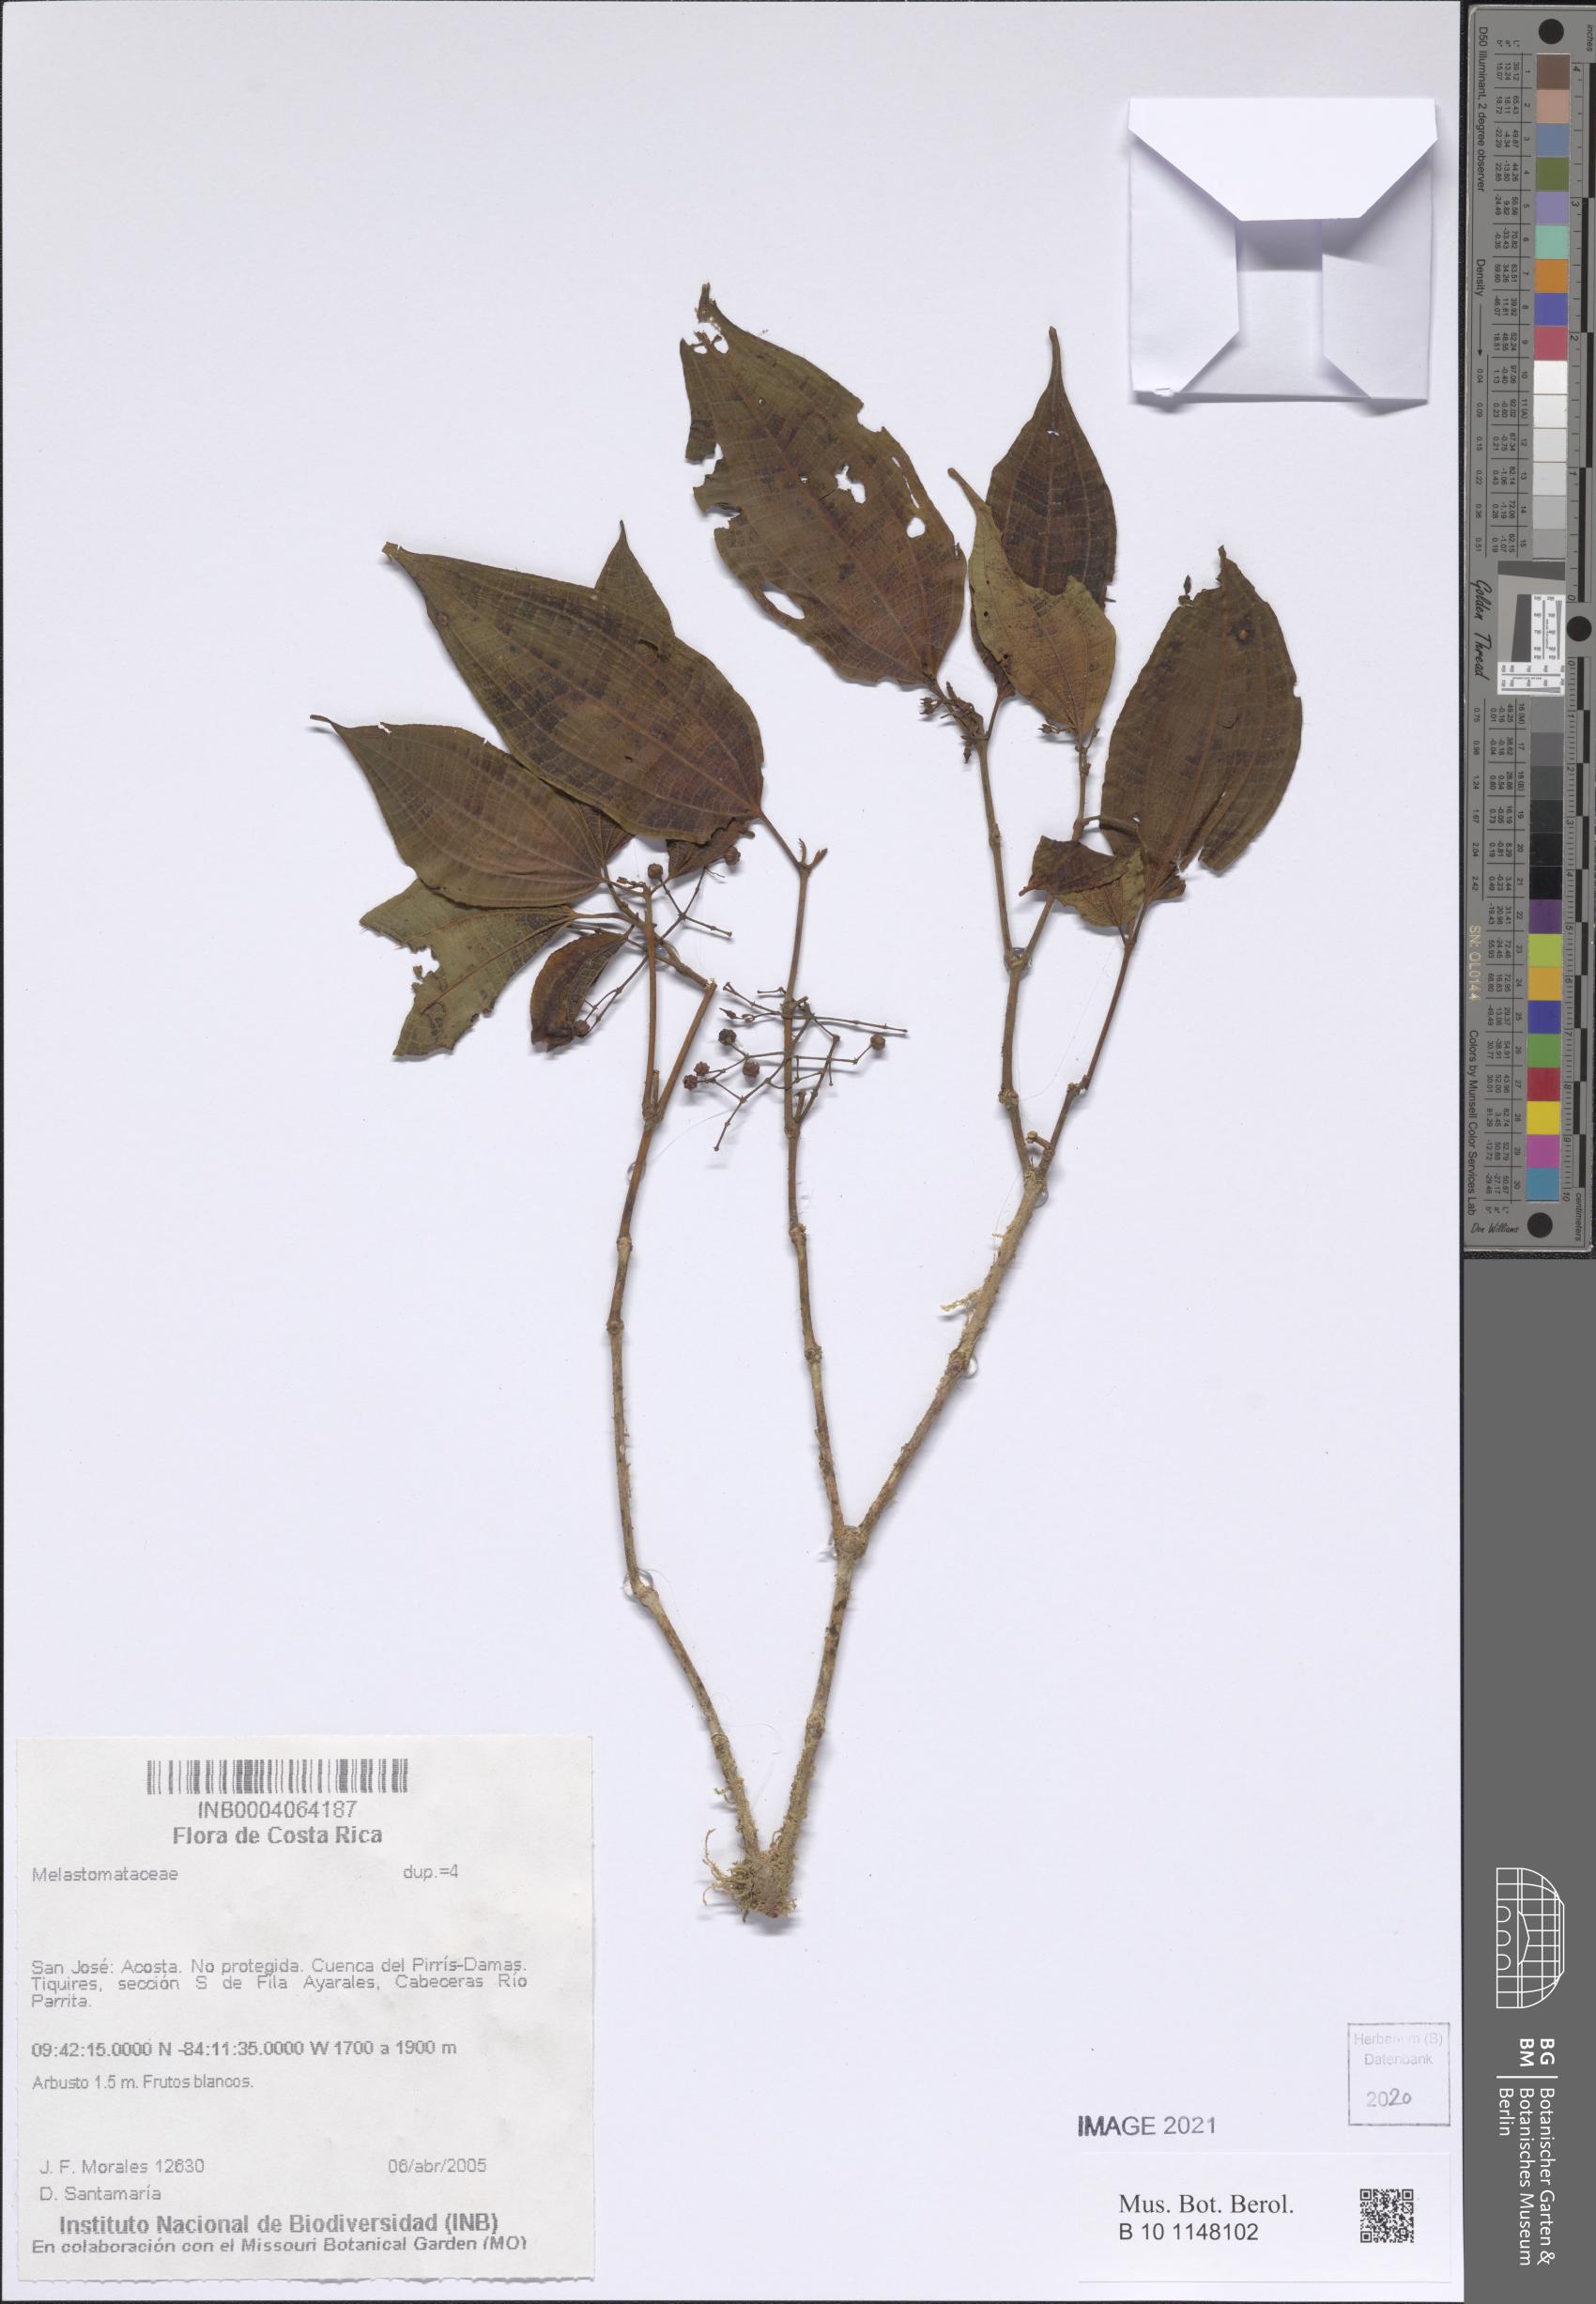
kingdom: Plantae
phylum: Tracheophyta
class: Magnoliopsida
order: Myrtales
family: Melastomataceae
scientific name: Melastomataceae
